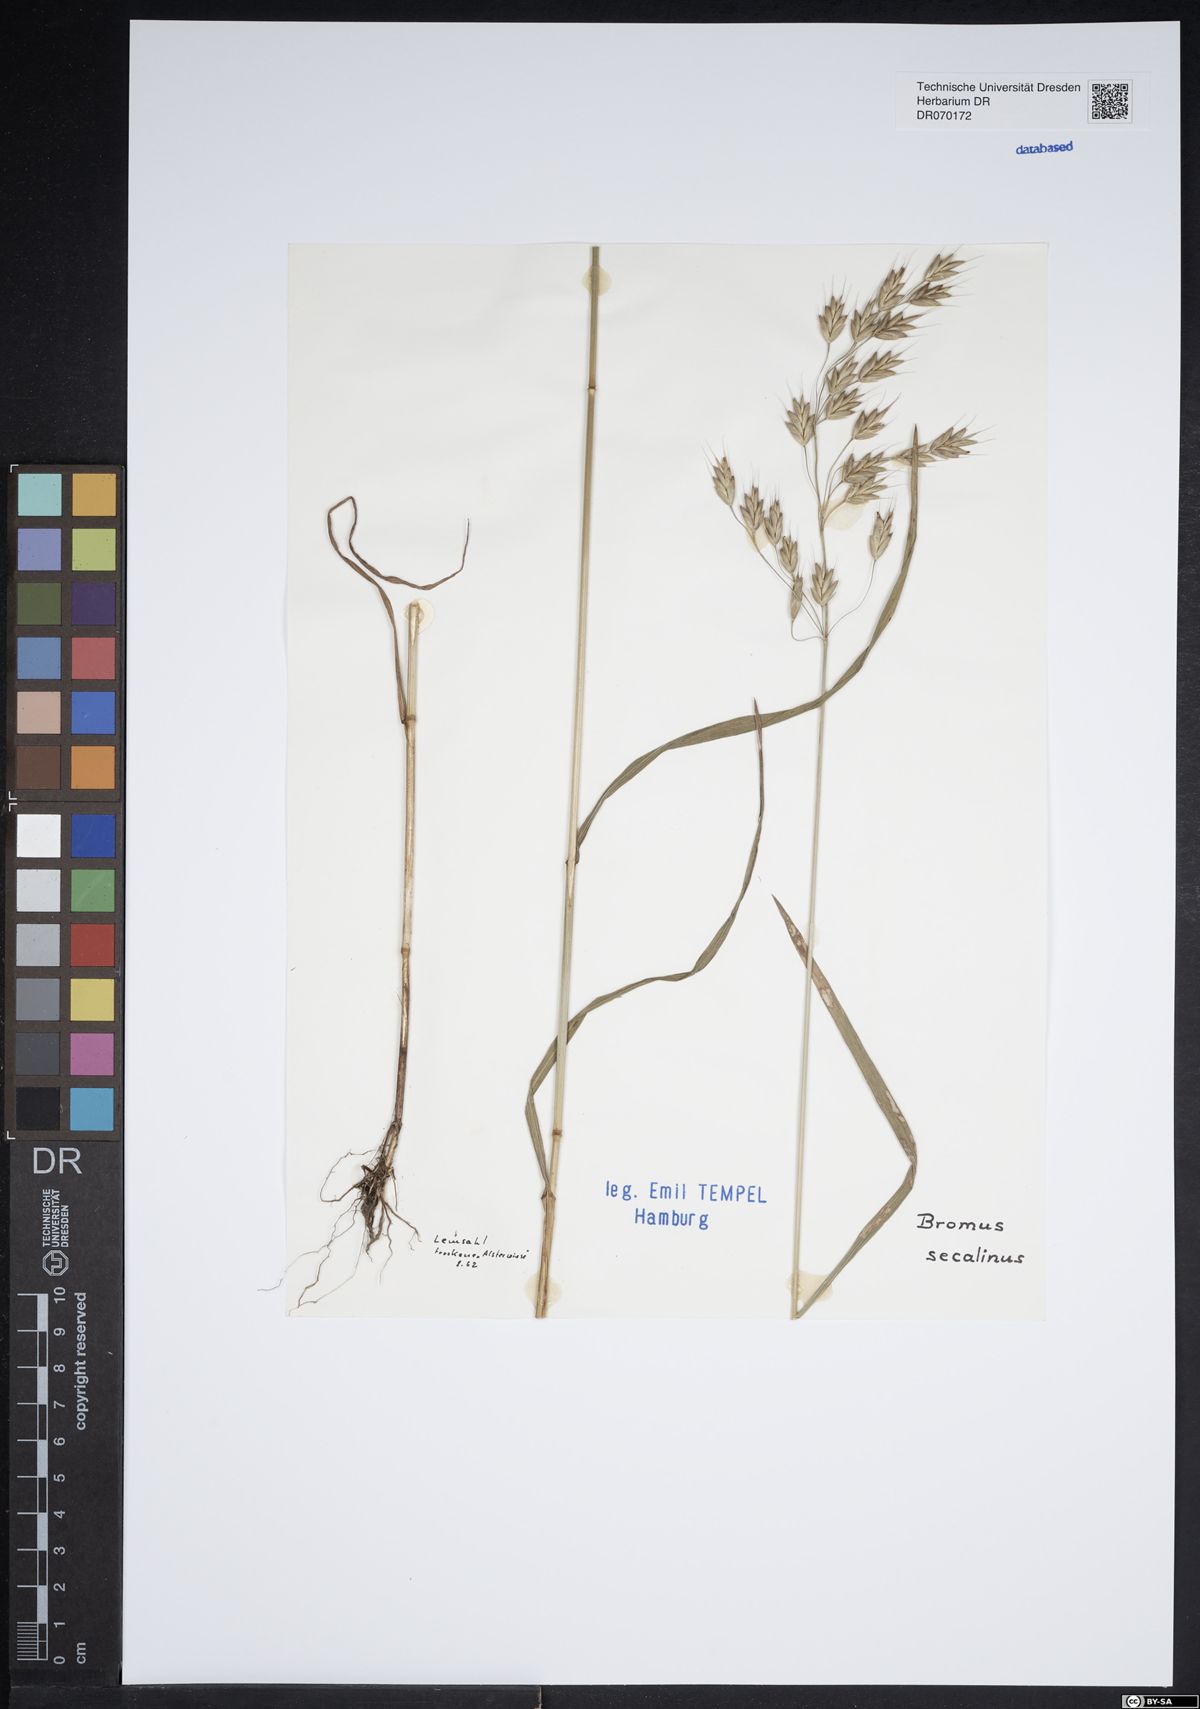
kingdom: Plantae
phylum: Tracheophyta
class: Liliopsida
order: Poales
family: Poaceae
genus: Bromus
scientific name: Bromus secalinus
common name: Rye brome
